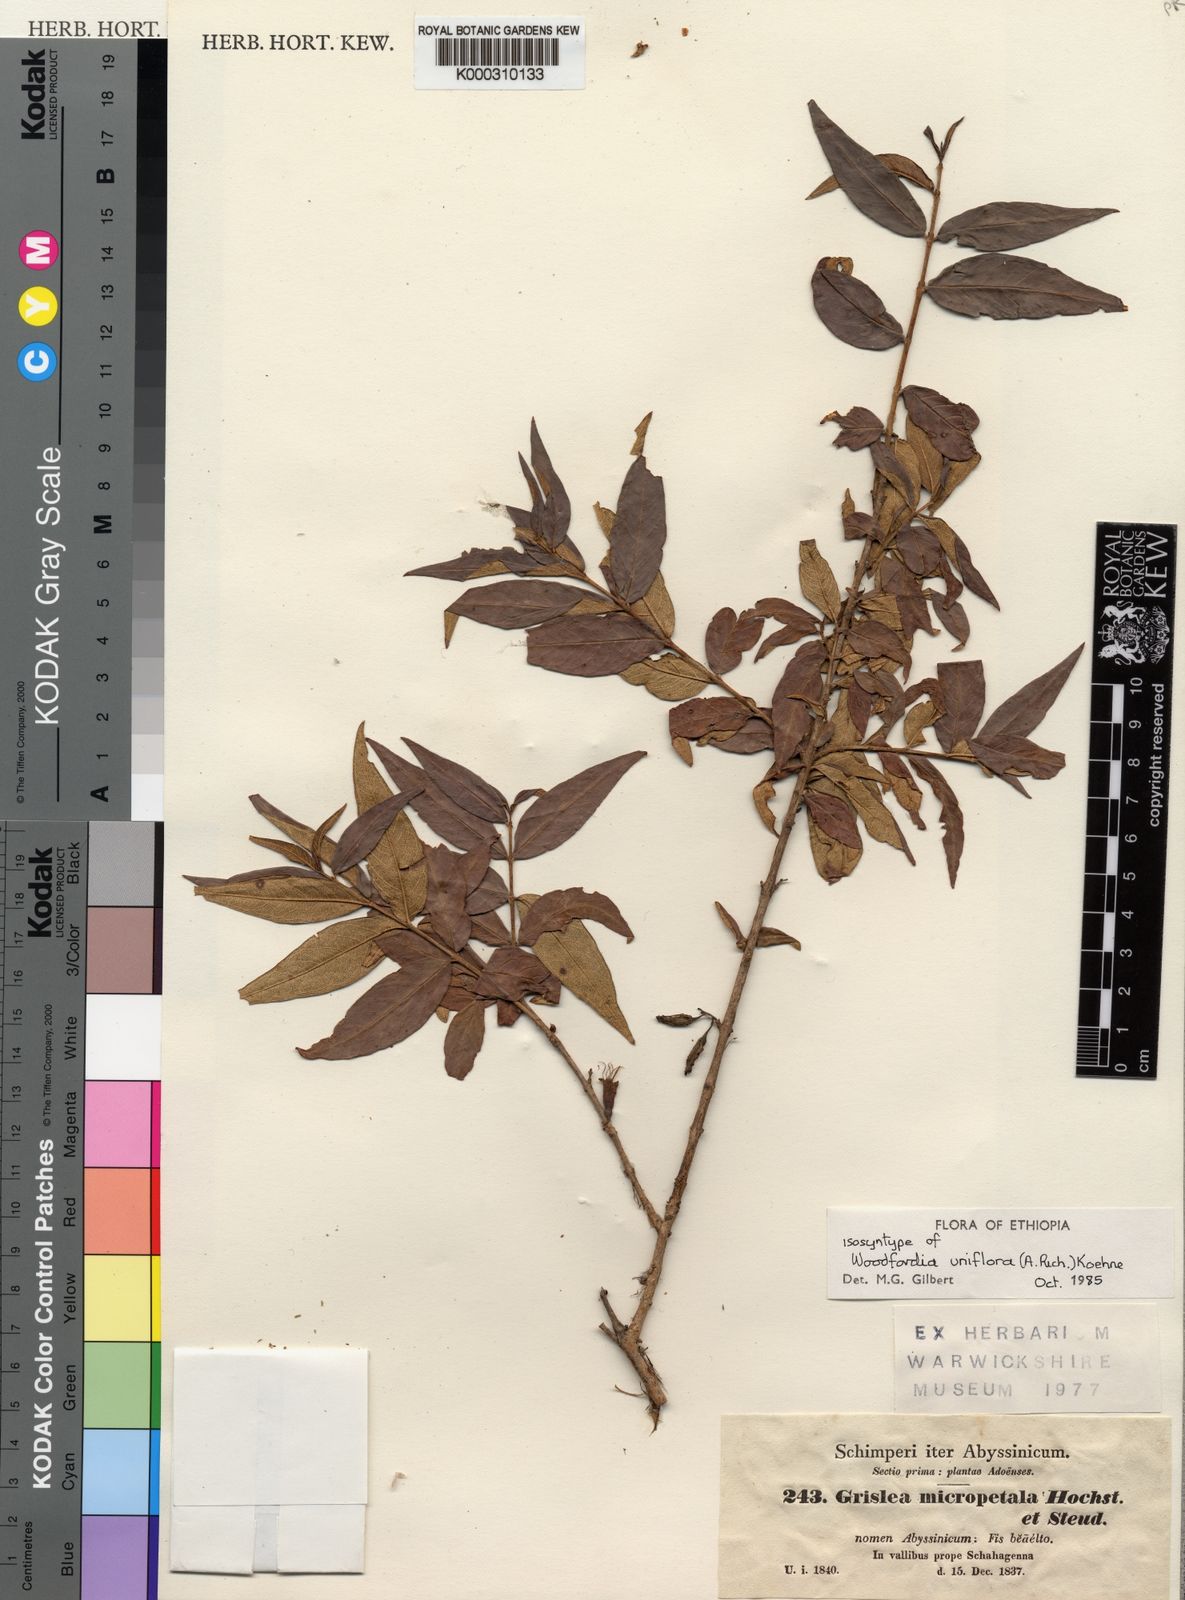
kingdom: Plantae
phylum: Tracheophyta
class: Magnoliopsida
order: Myrtales
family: Lythraceae
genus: Woodfordia
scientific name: Woodfordia uniflora
